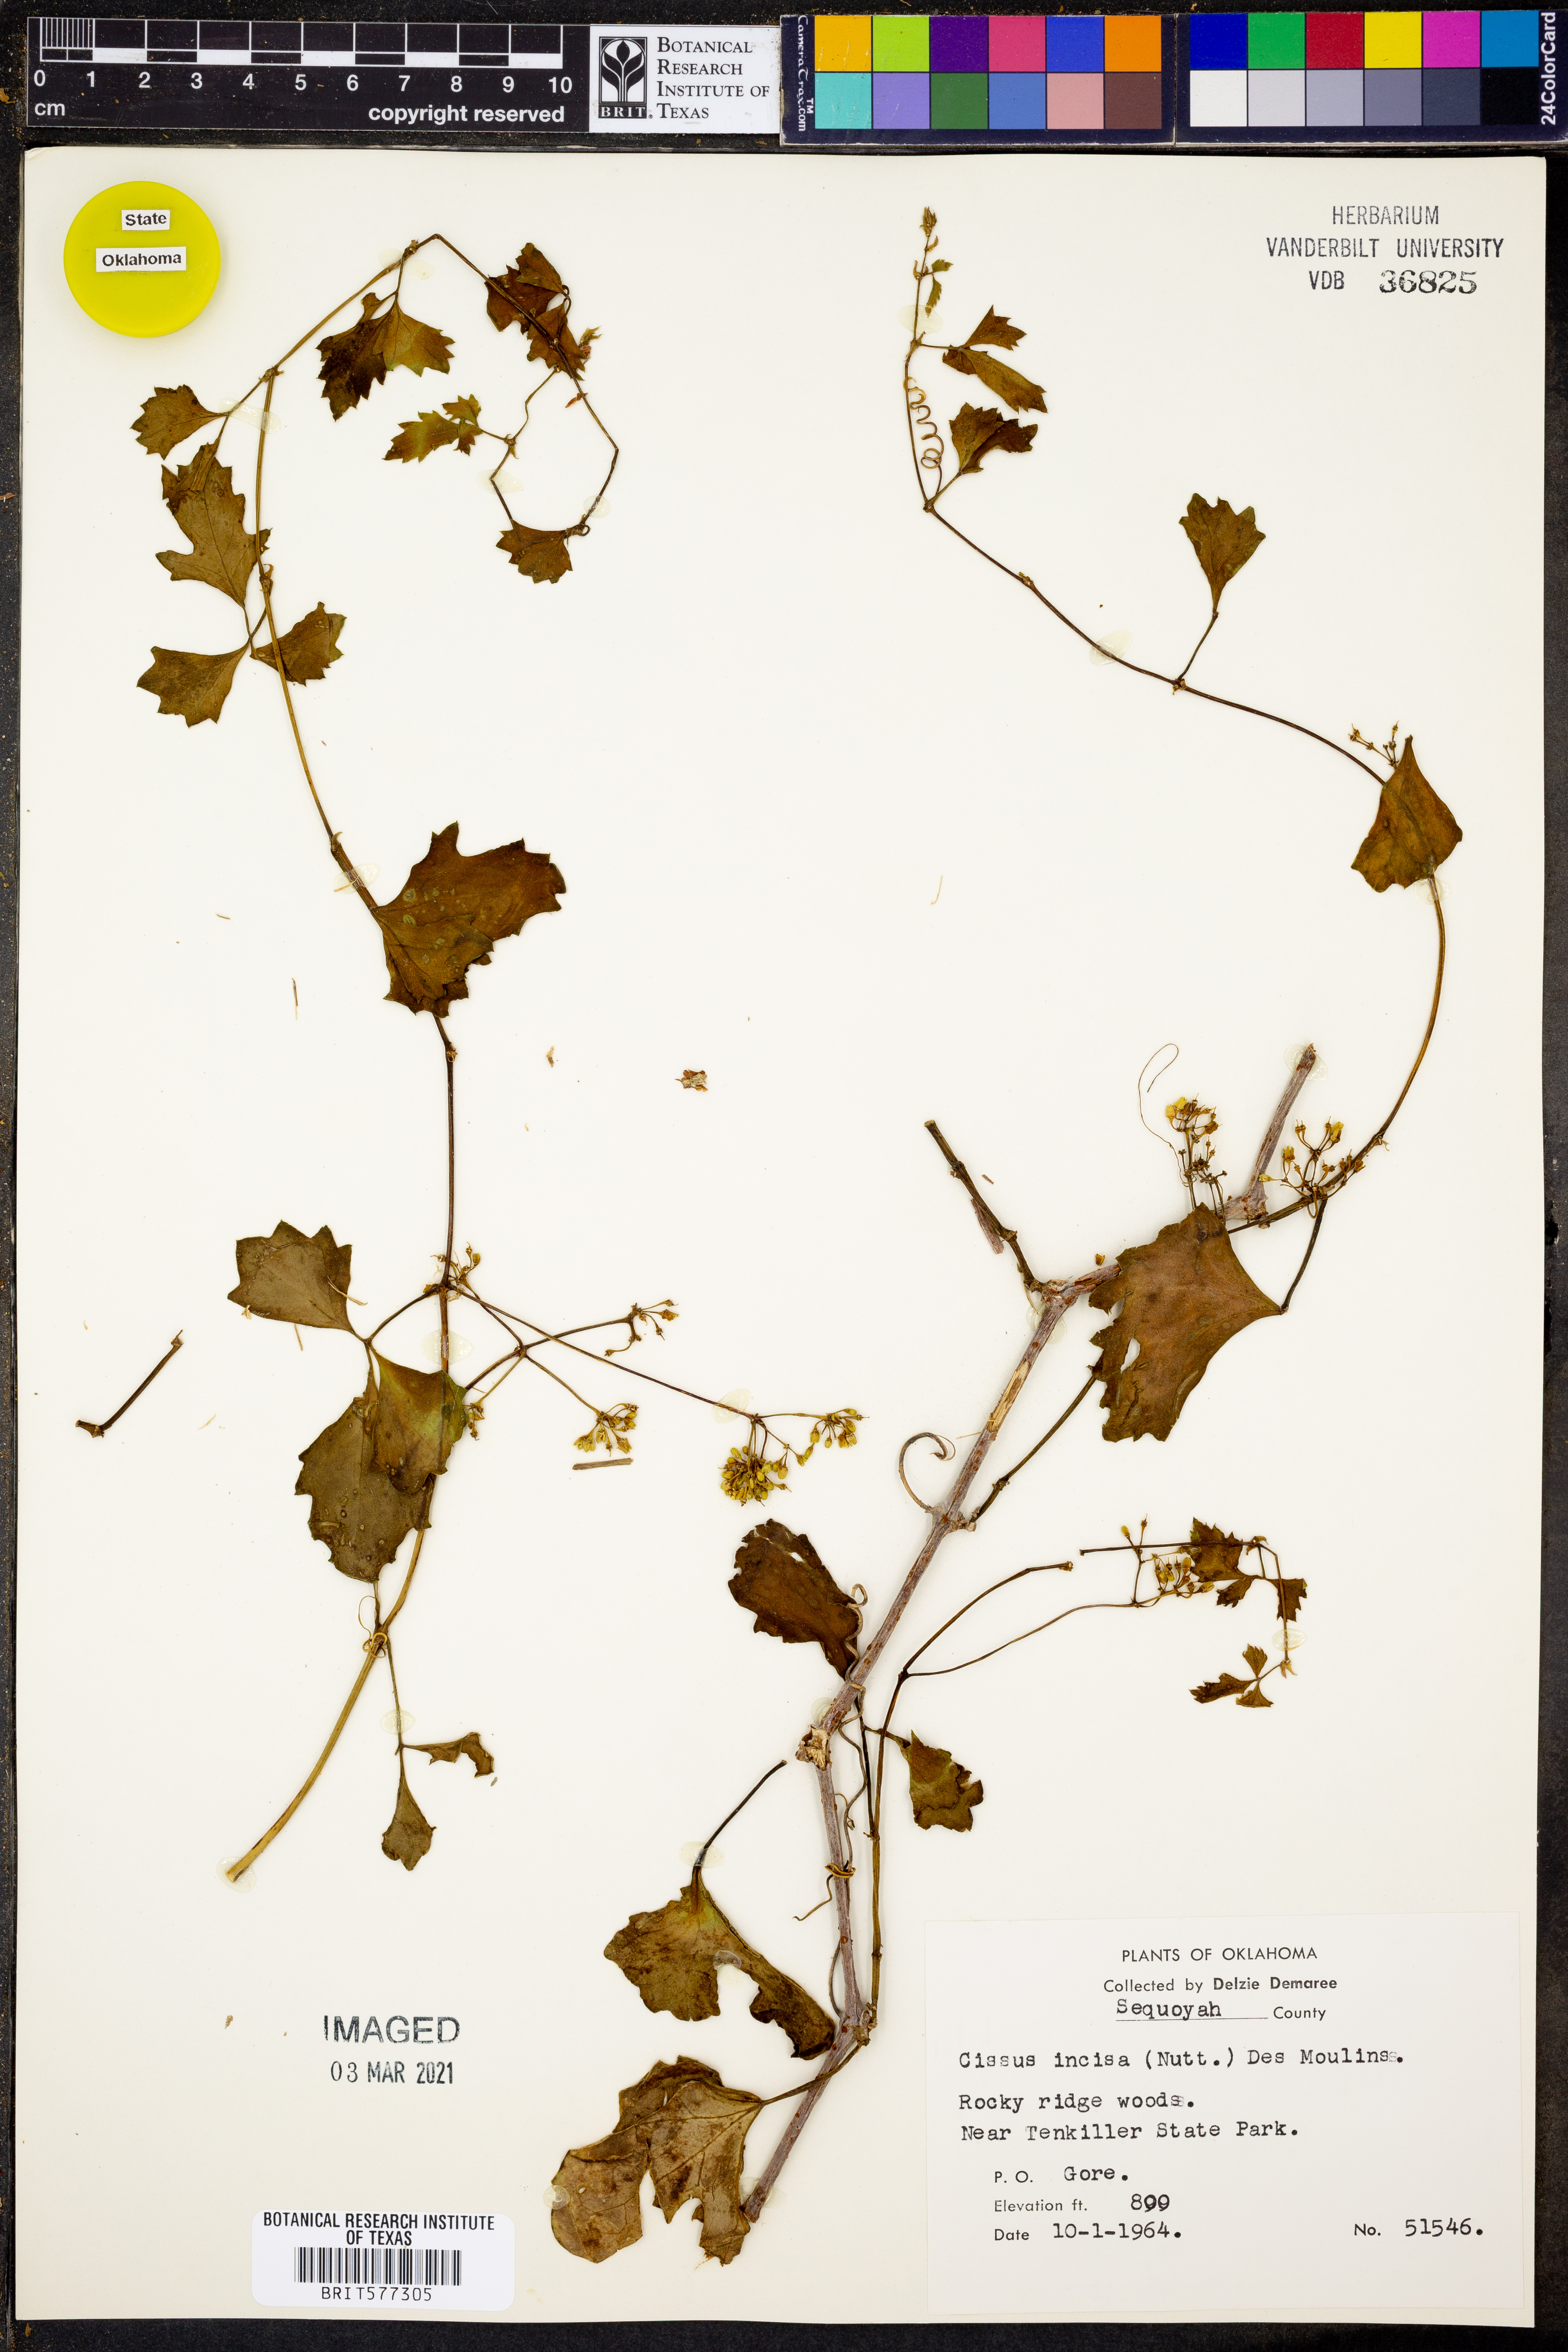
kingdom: Plantae
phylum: Tracheophyta
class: Magnoliopsida
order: Vitales
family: Vitaceae
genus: Cissus
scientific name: Cissus trifoliata
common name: Vine-sorrel
